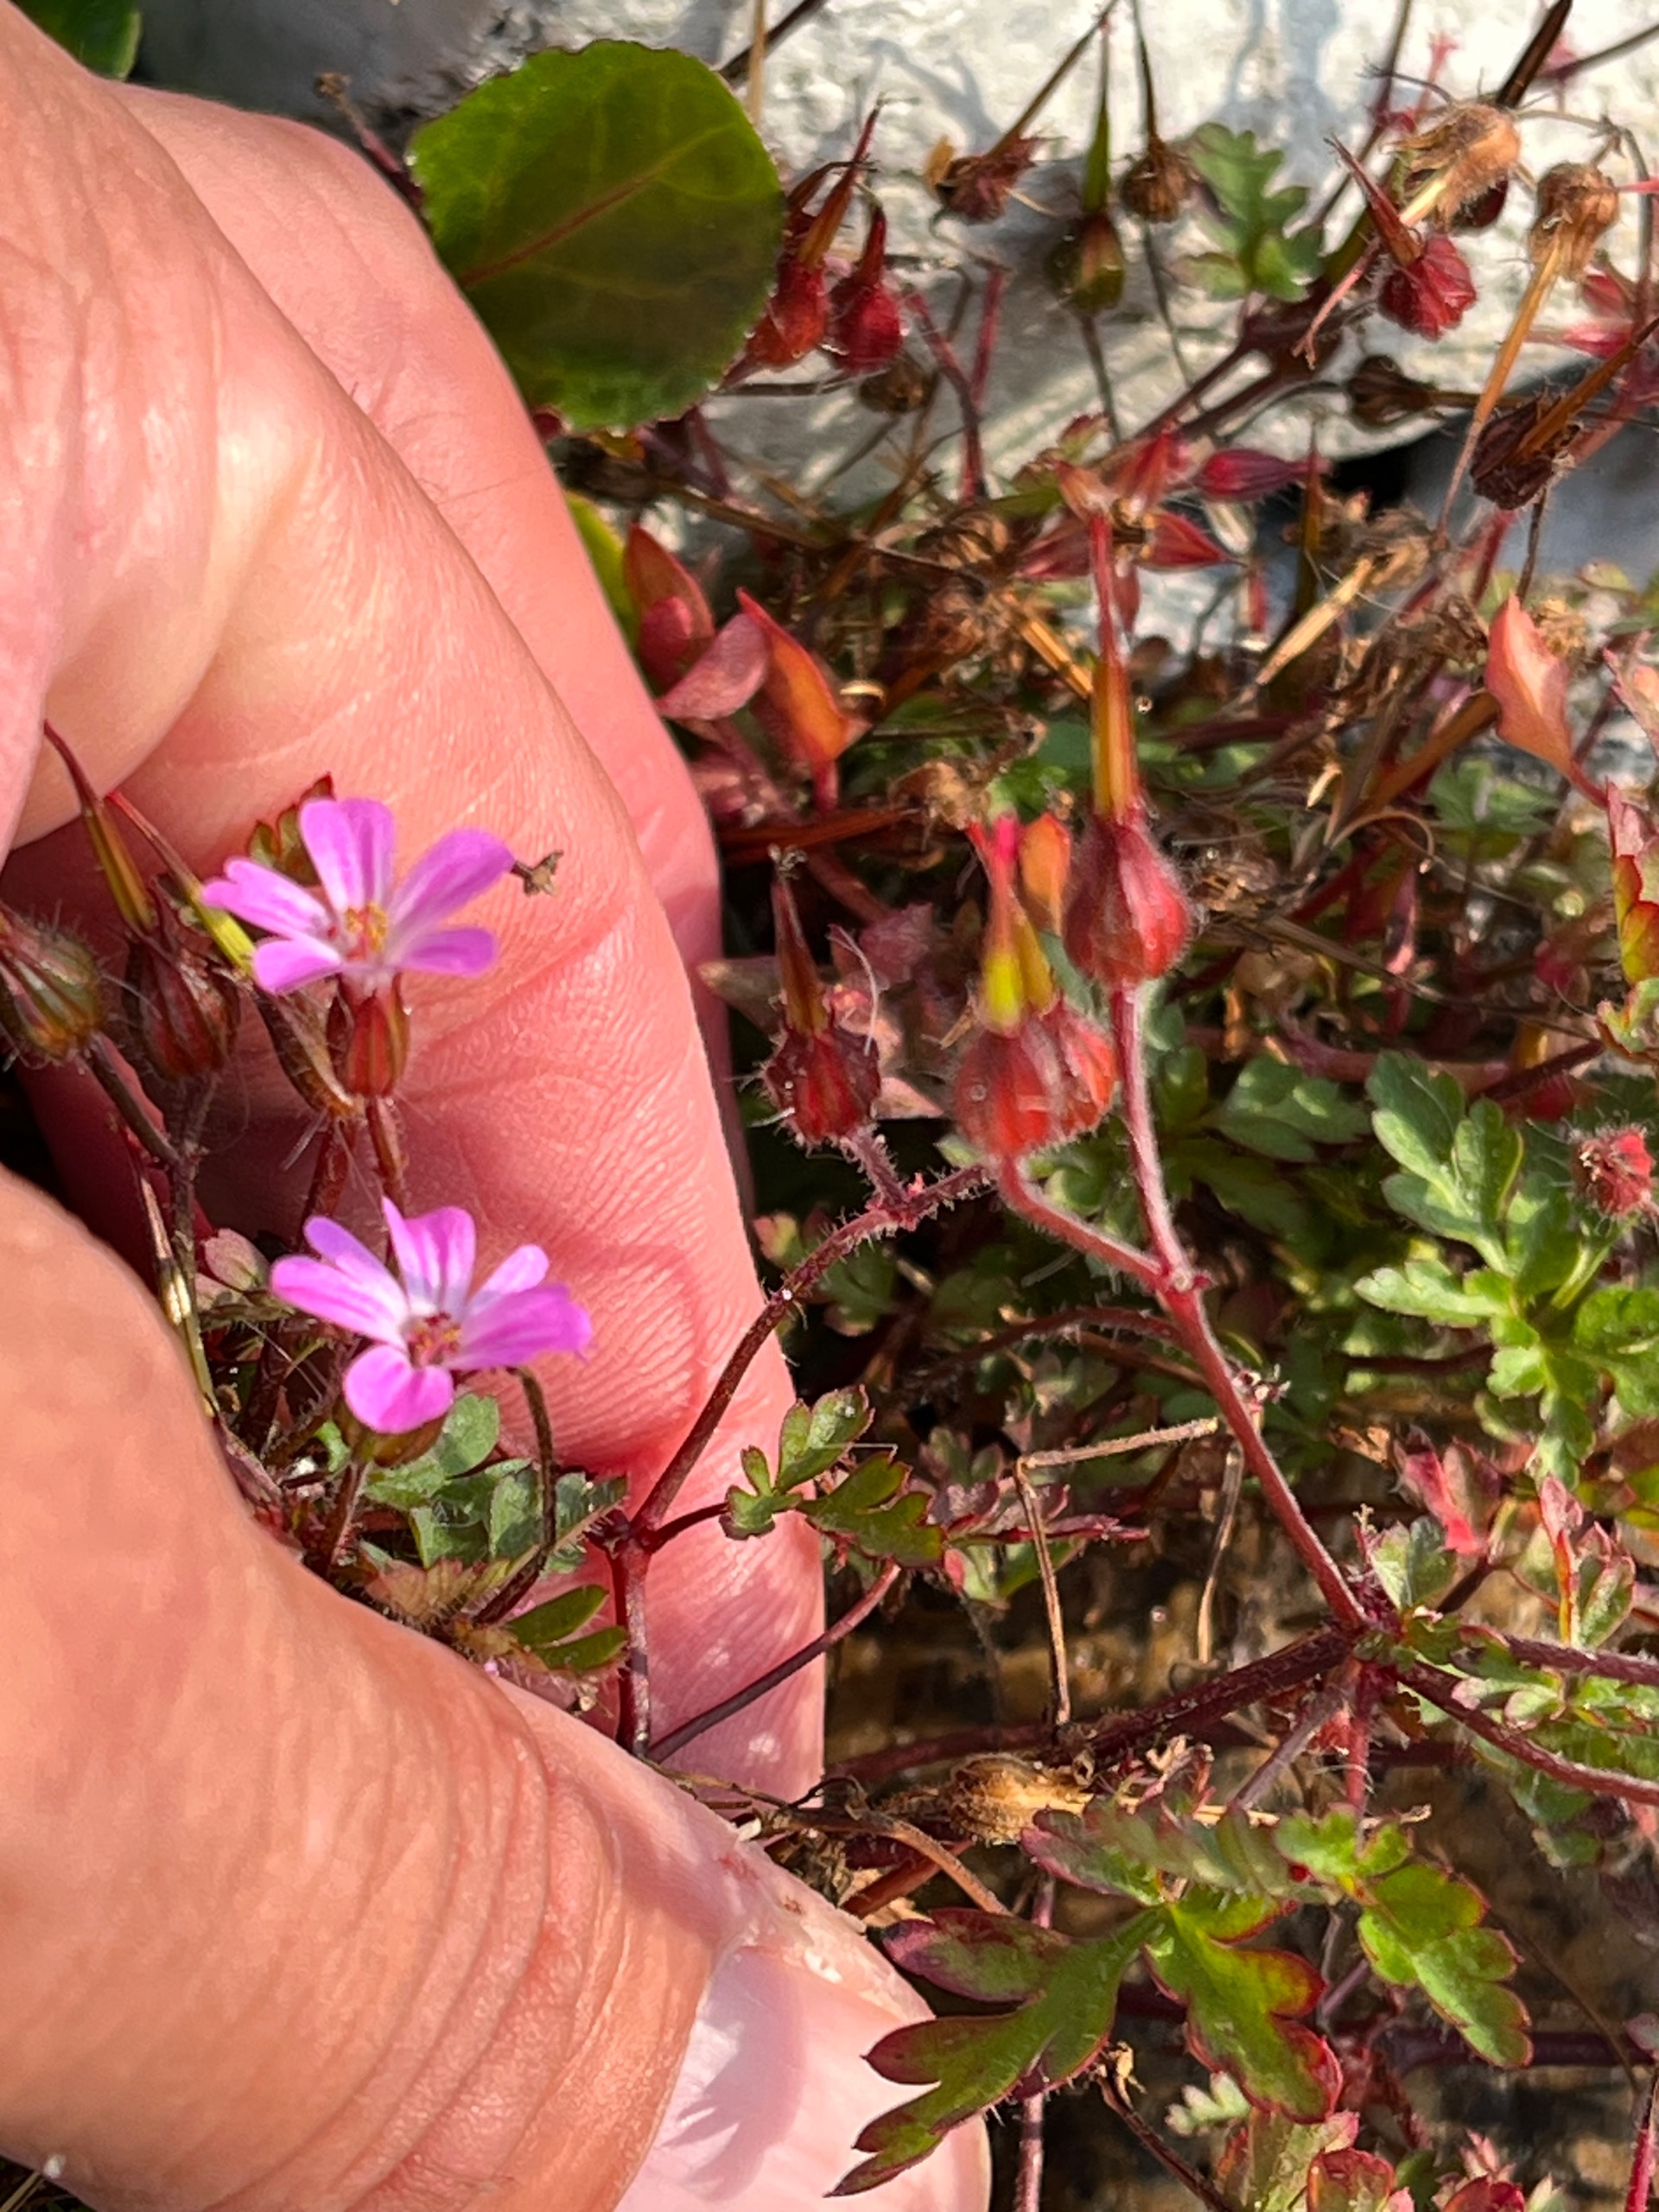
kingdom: Plantae
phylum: Tracheophyta
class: Magnoliopsida
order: Geraniales
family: Geraniaceae
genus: Geranium
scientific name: Geranium robertianum
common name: Stinkende storkenæb
